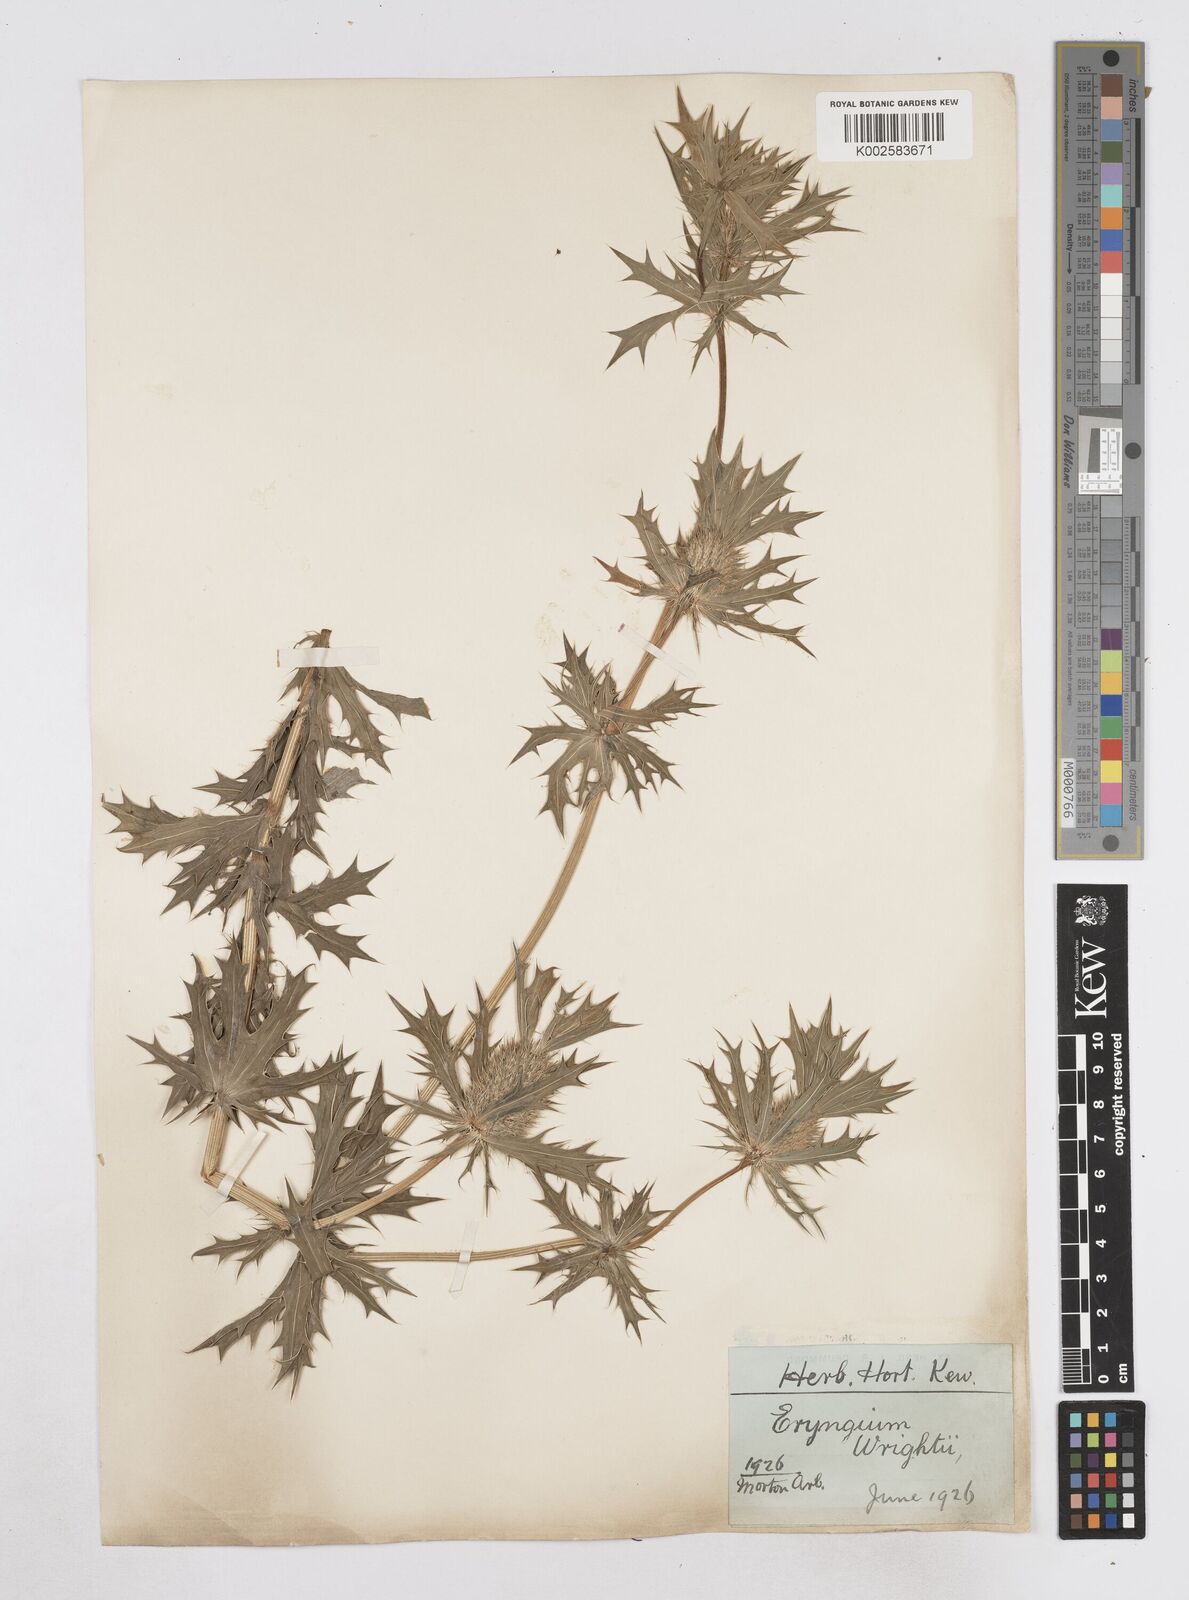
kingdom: Plantae
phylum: Tracheophyta
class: Magnoliopsida
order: Apiales
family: Apiaceae
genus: Eryngium
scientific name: Eryngium heterophyllum
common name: Mexican thistle
